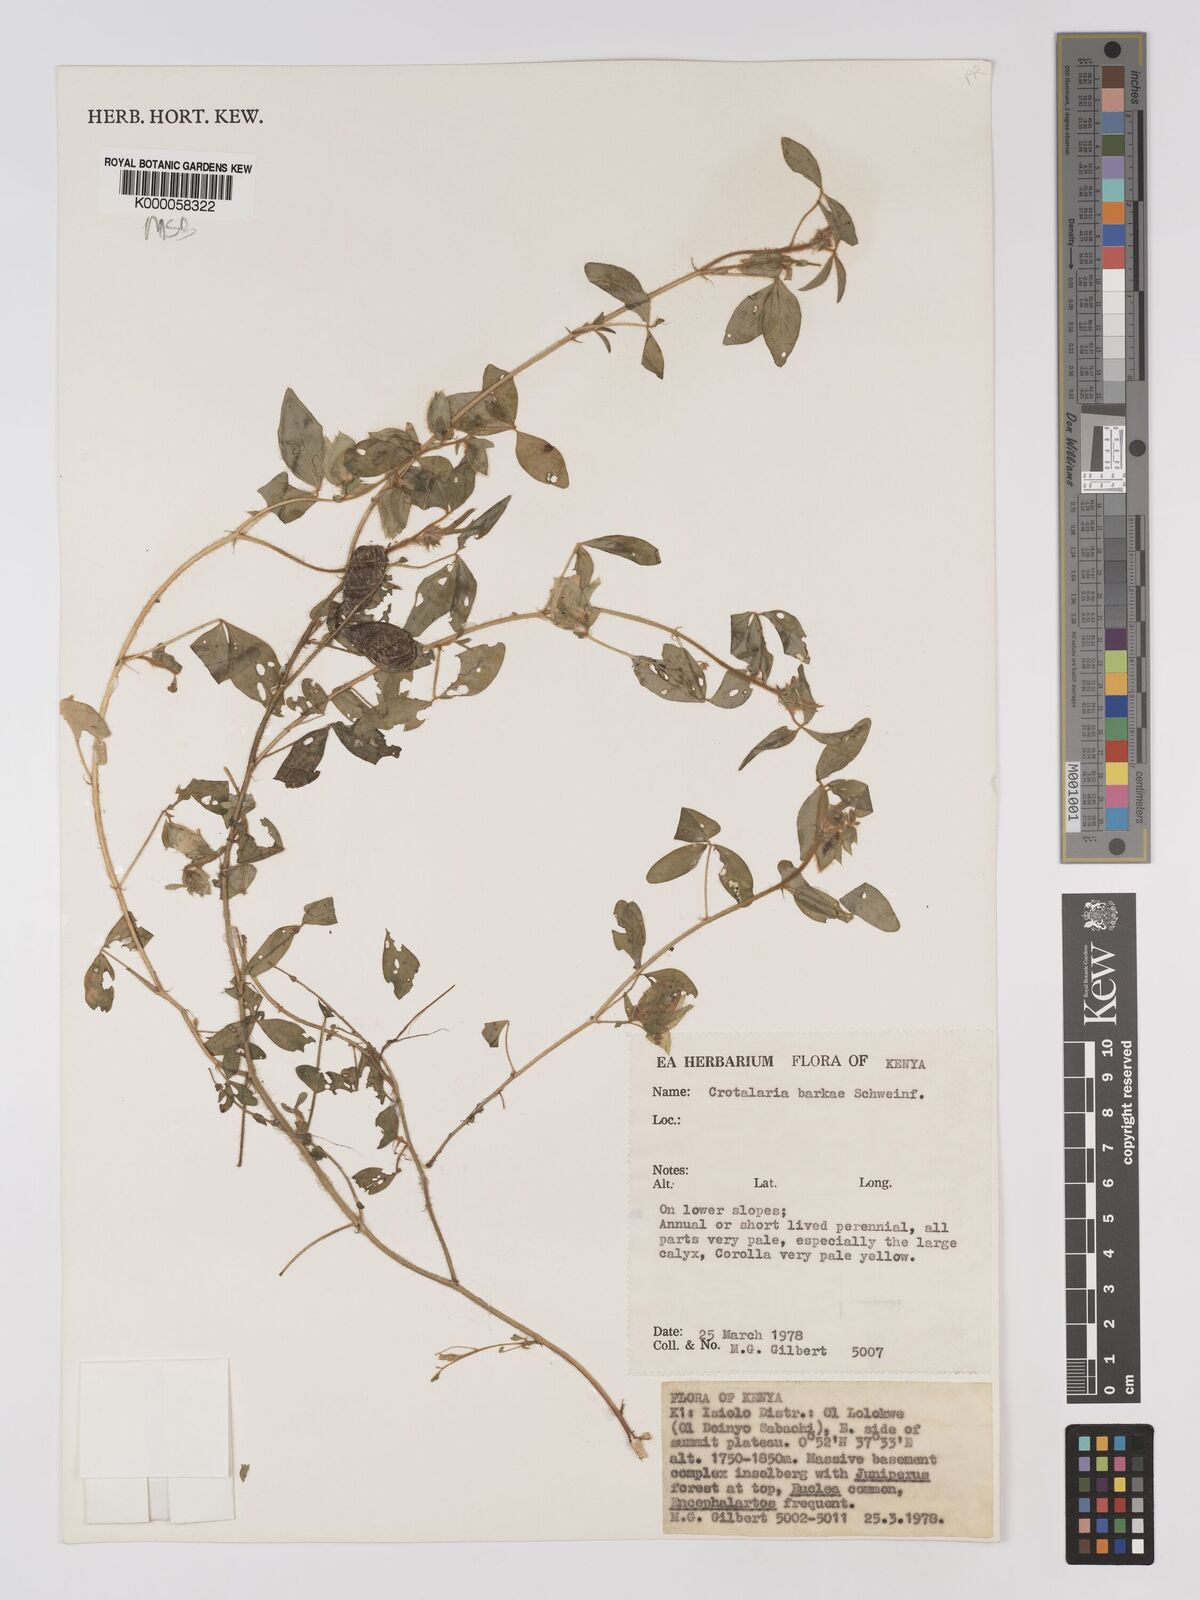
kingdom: Plantae
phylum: Tracheophyta
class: Magnoliopsida
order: Fabales
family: Fabaceae
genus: Crotalaria
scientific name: Crotalaria barkae
